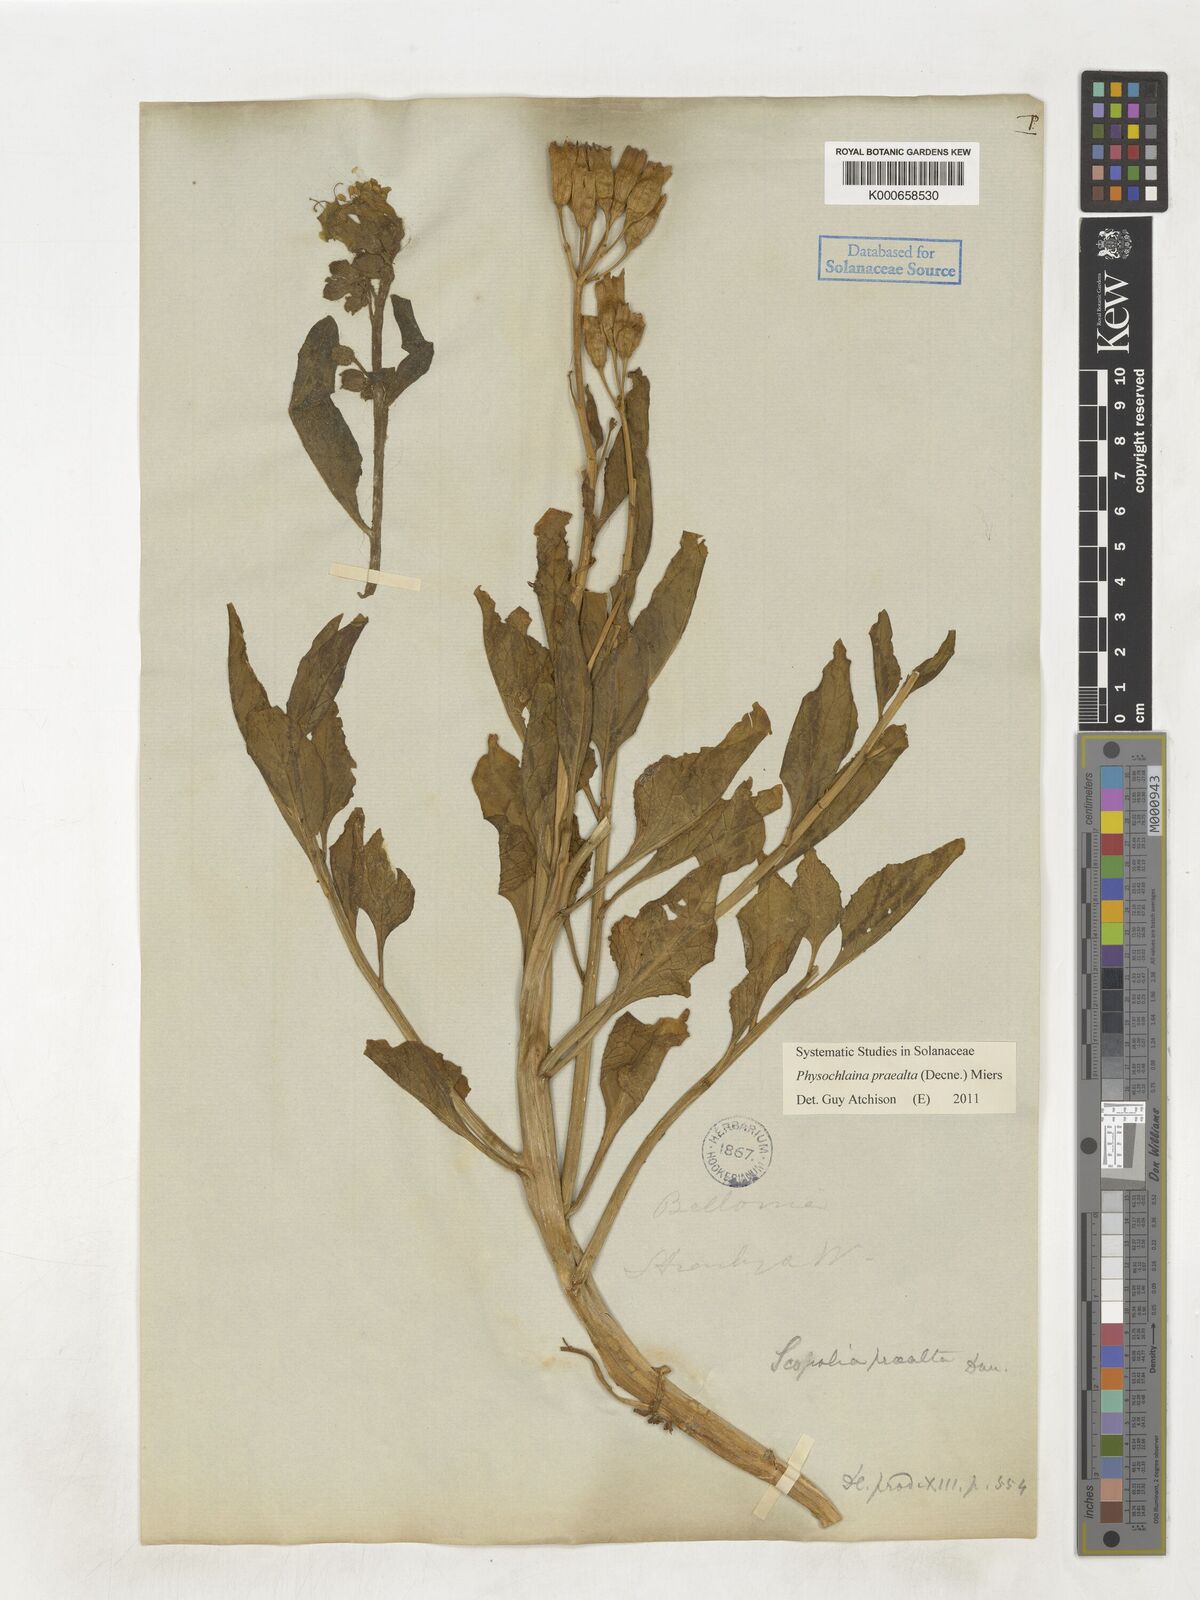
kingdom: Plantae
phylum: Tracheophyta
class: Magnoliopsida
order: Solanales
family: Solanaceae
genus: Physochlaina
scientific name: Physochlaina praealta
